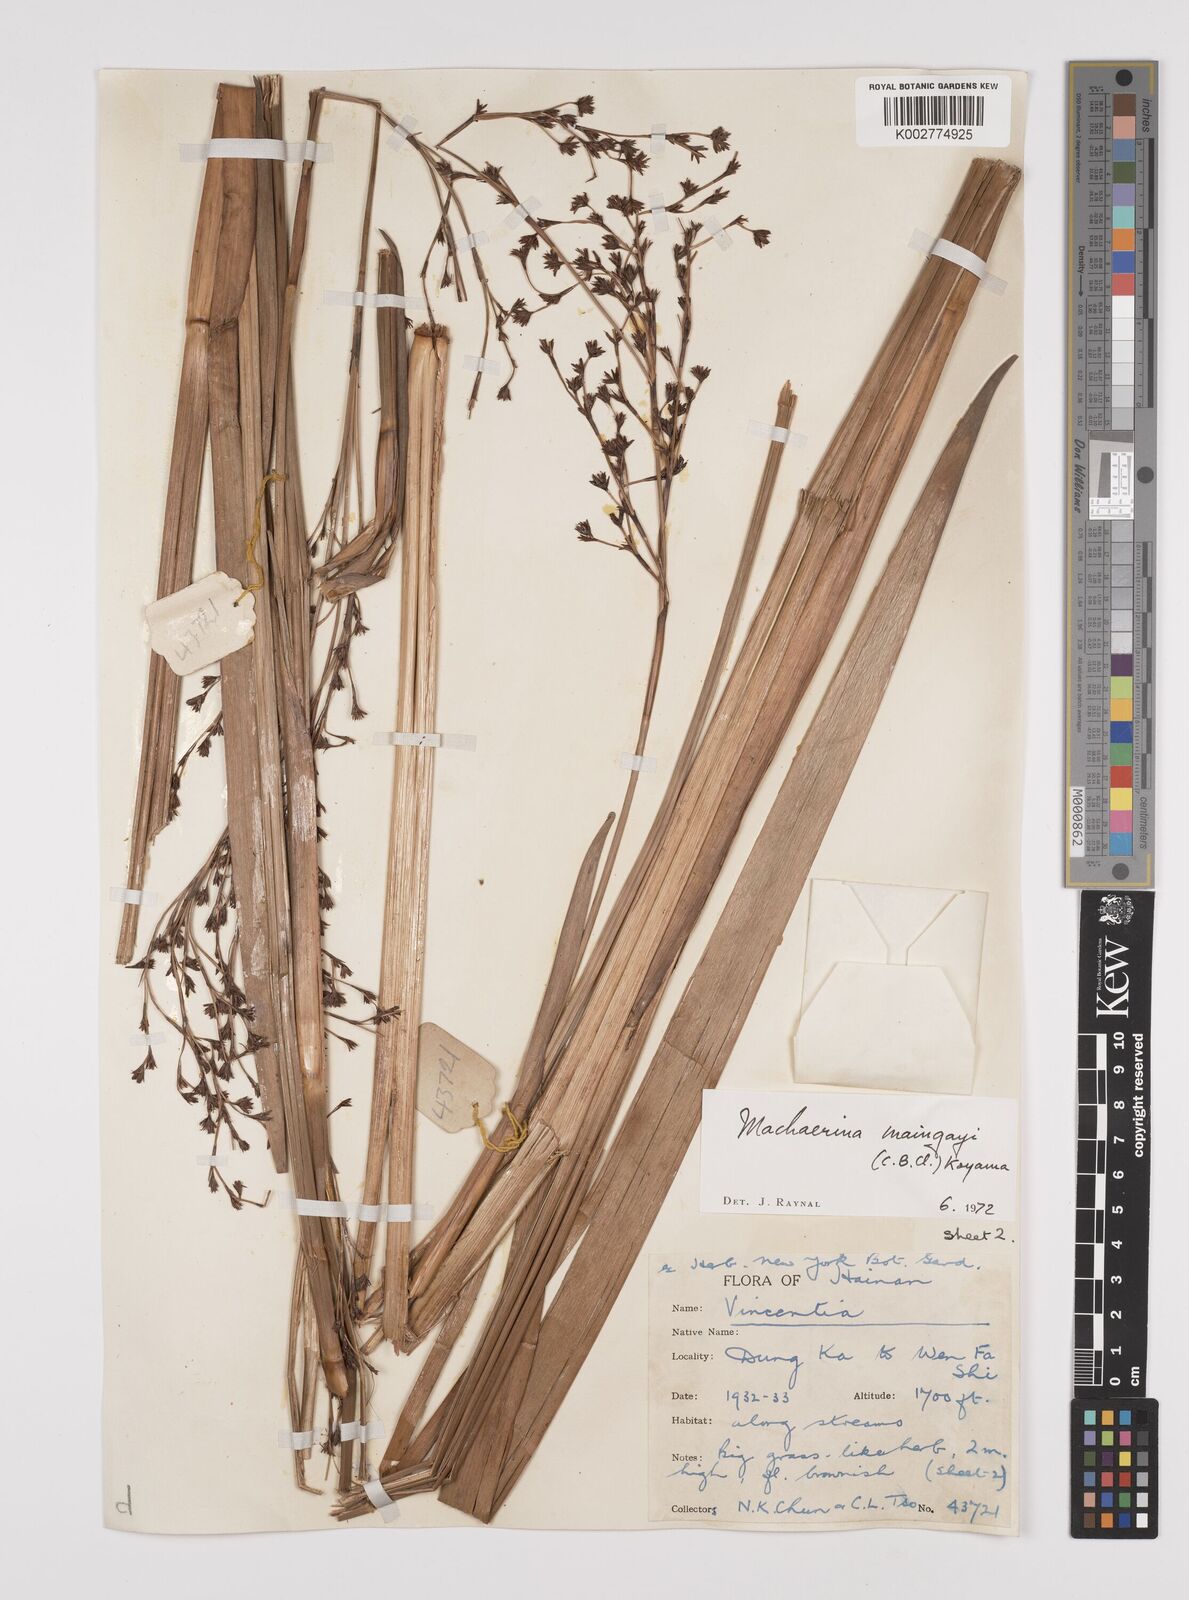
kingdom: Plantae
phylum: Tracheophyta
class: Liliopsida
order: Poales
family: Cyperaceae
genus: Machaerina
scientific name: Machaerina maingayi
